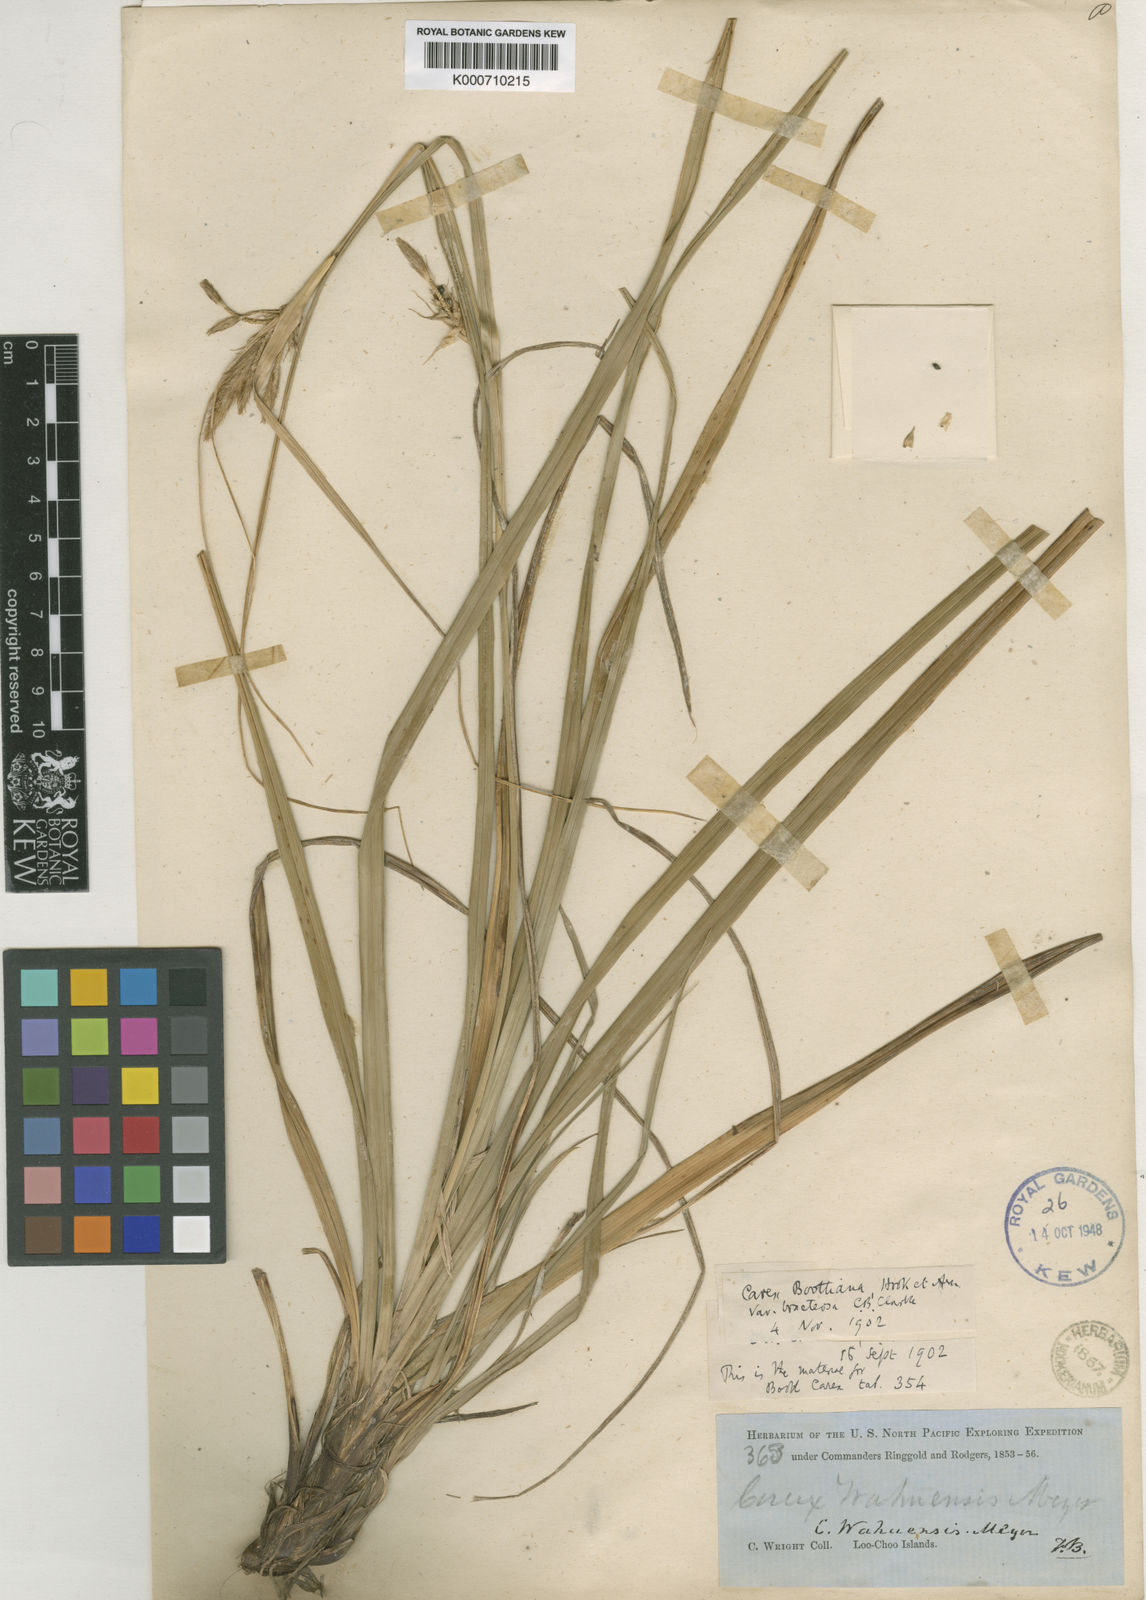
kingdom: Plantae
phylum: Tracheophyta
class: Liliopsida
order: Poales
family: Cyperaceae
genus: Carex
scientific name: Carex wahuensis
